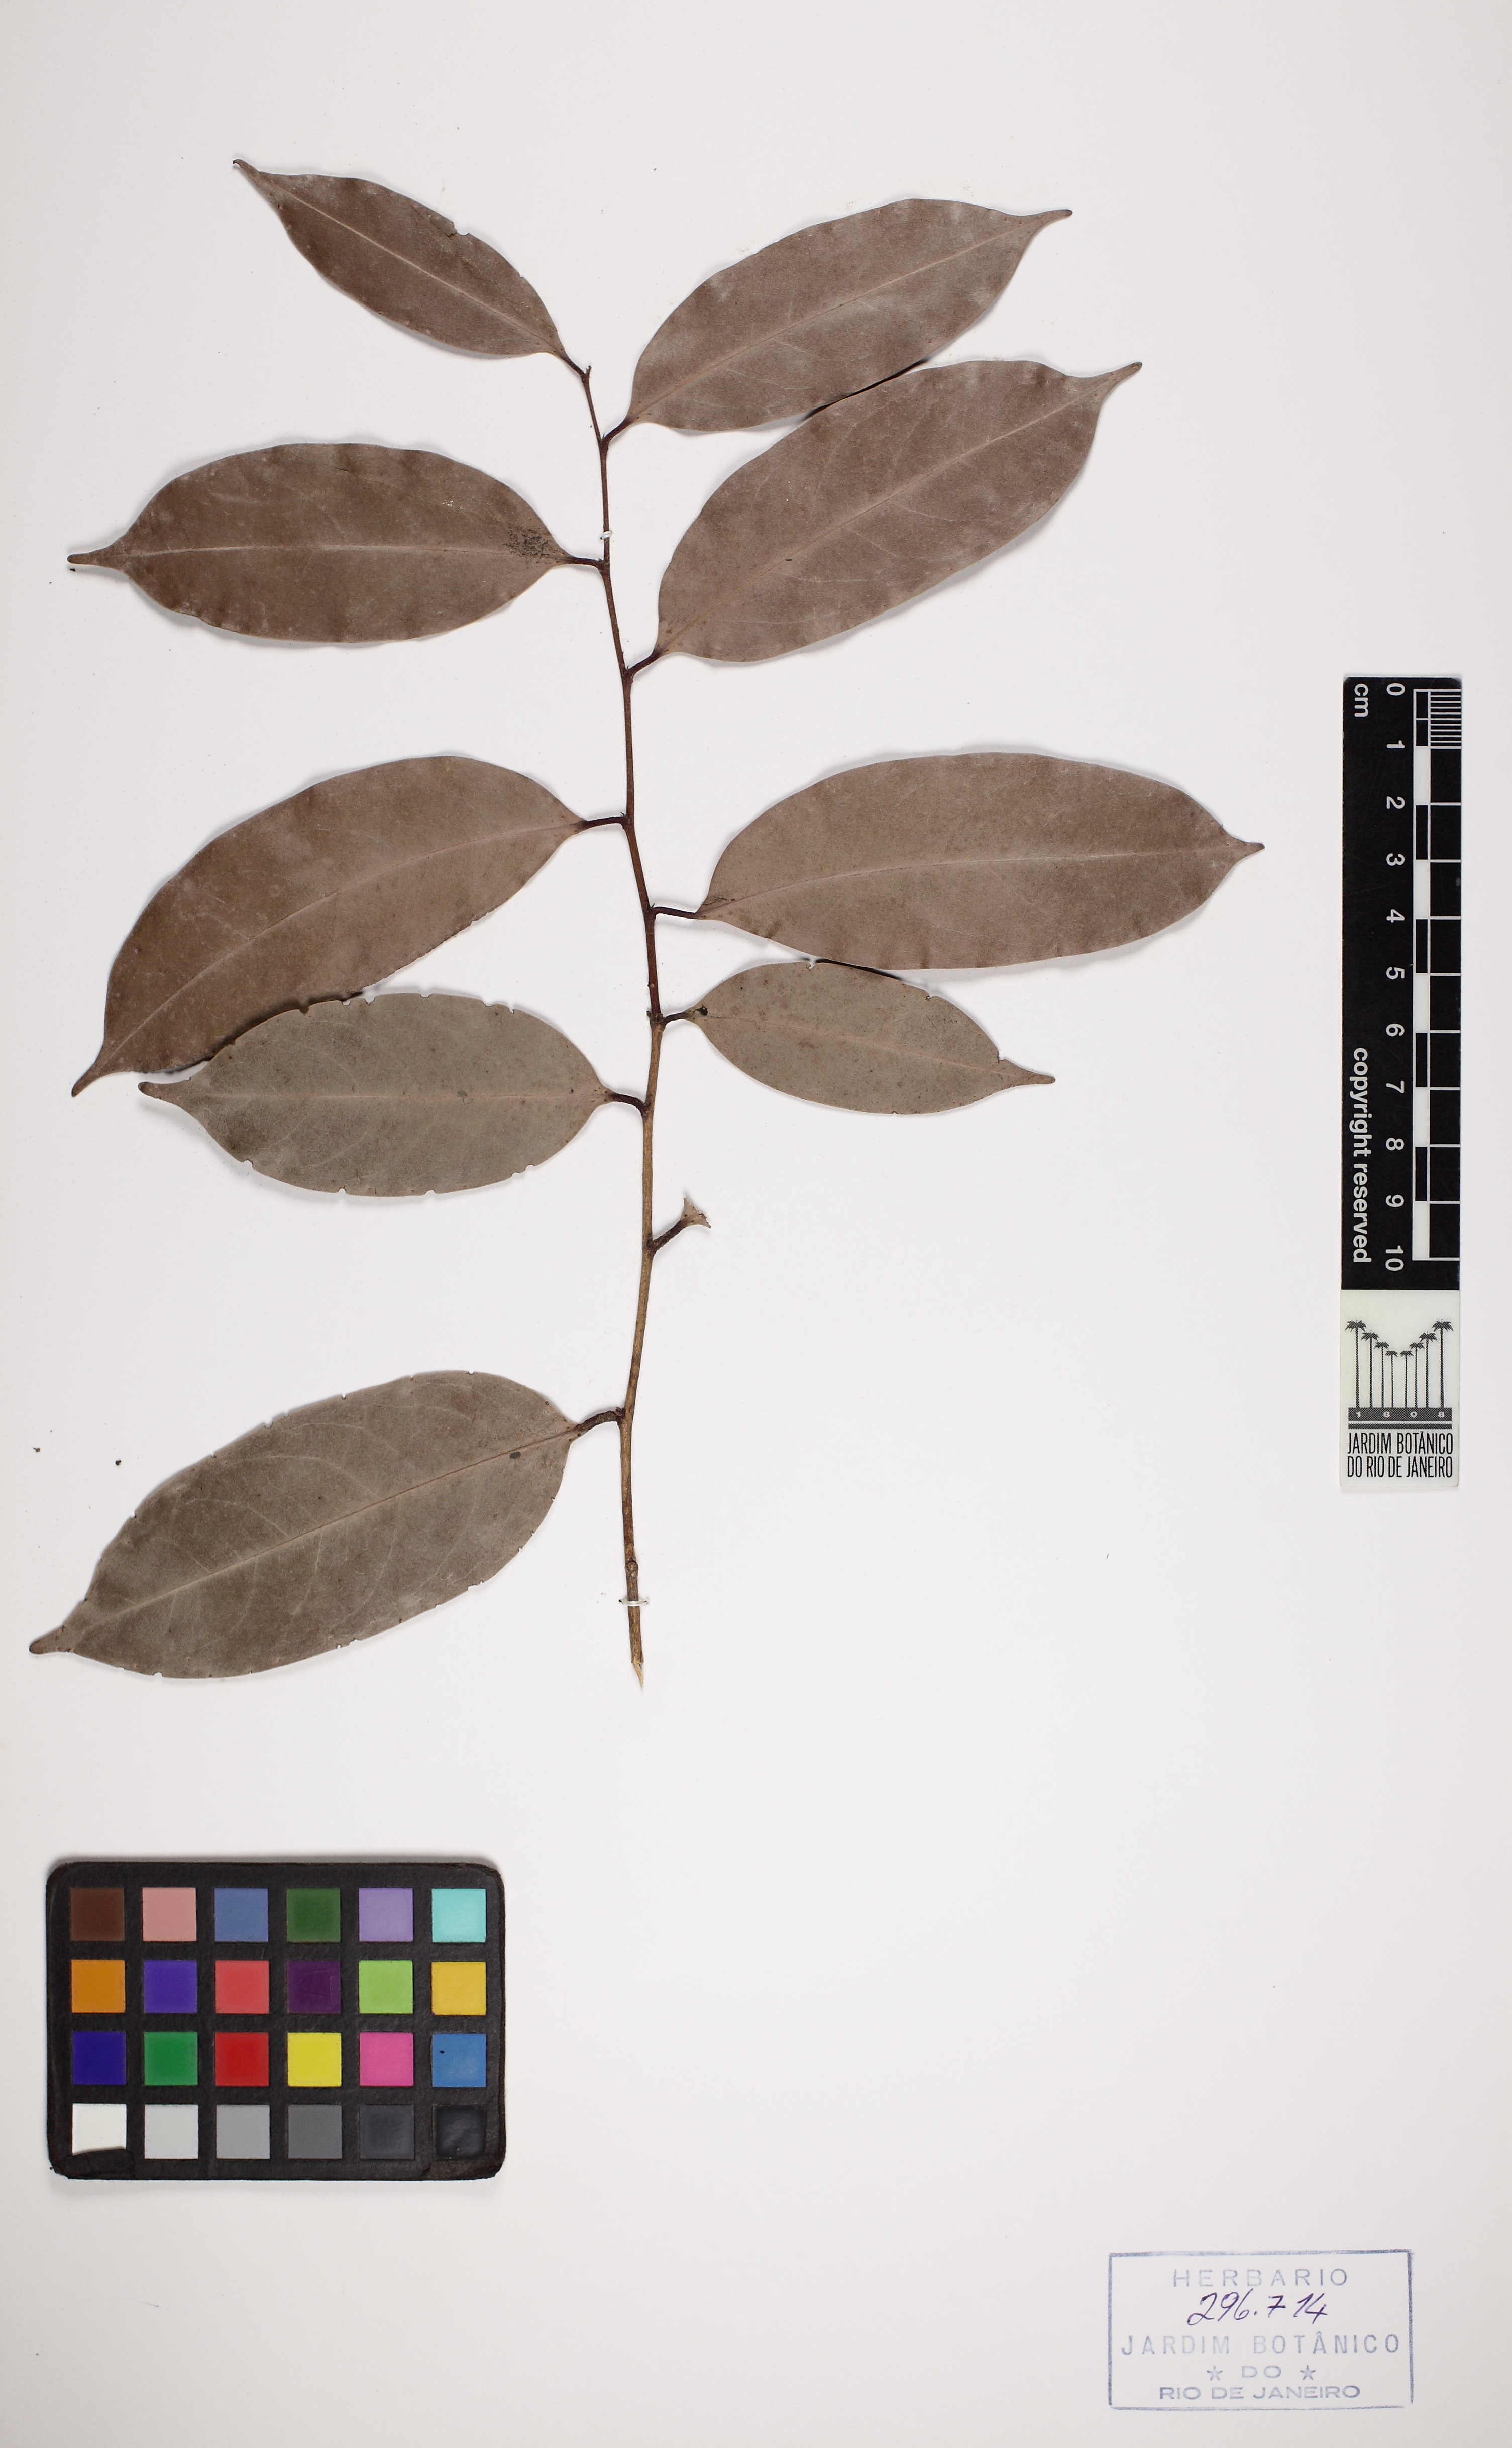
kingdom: Plantae
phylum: Tracheophyta
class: Magnoliopsida
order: Malpighiales
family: Euphorbiaceae
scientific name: Euphorbiaceae
